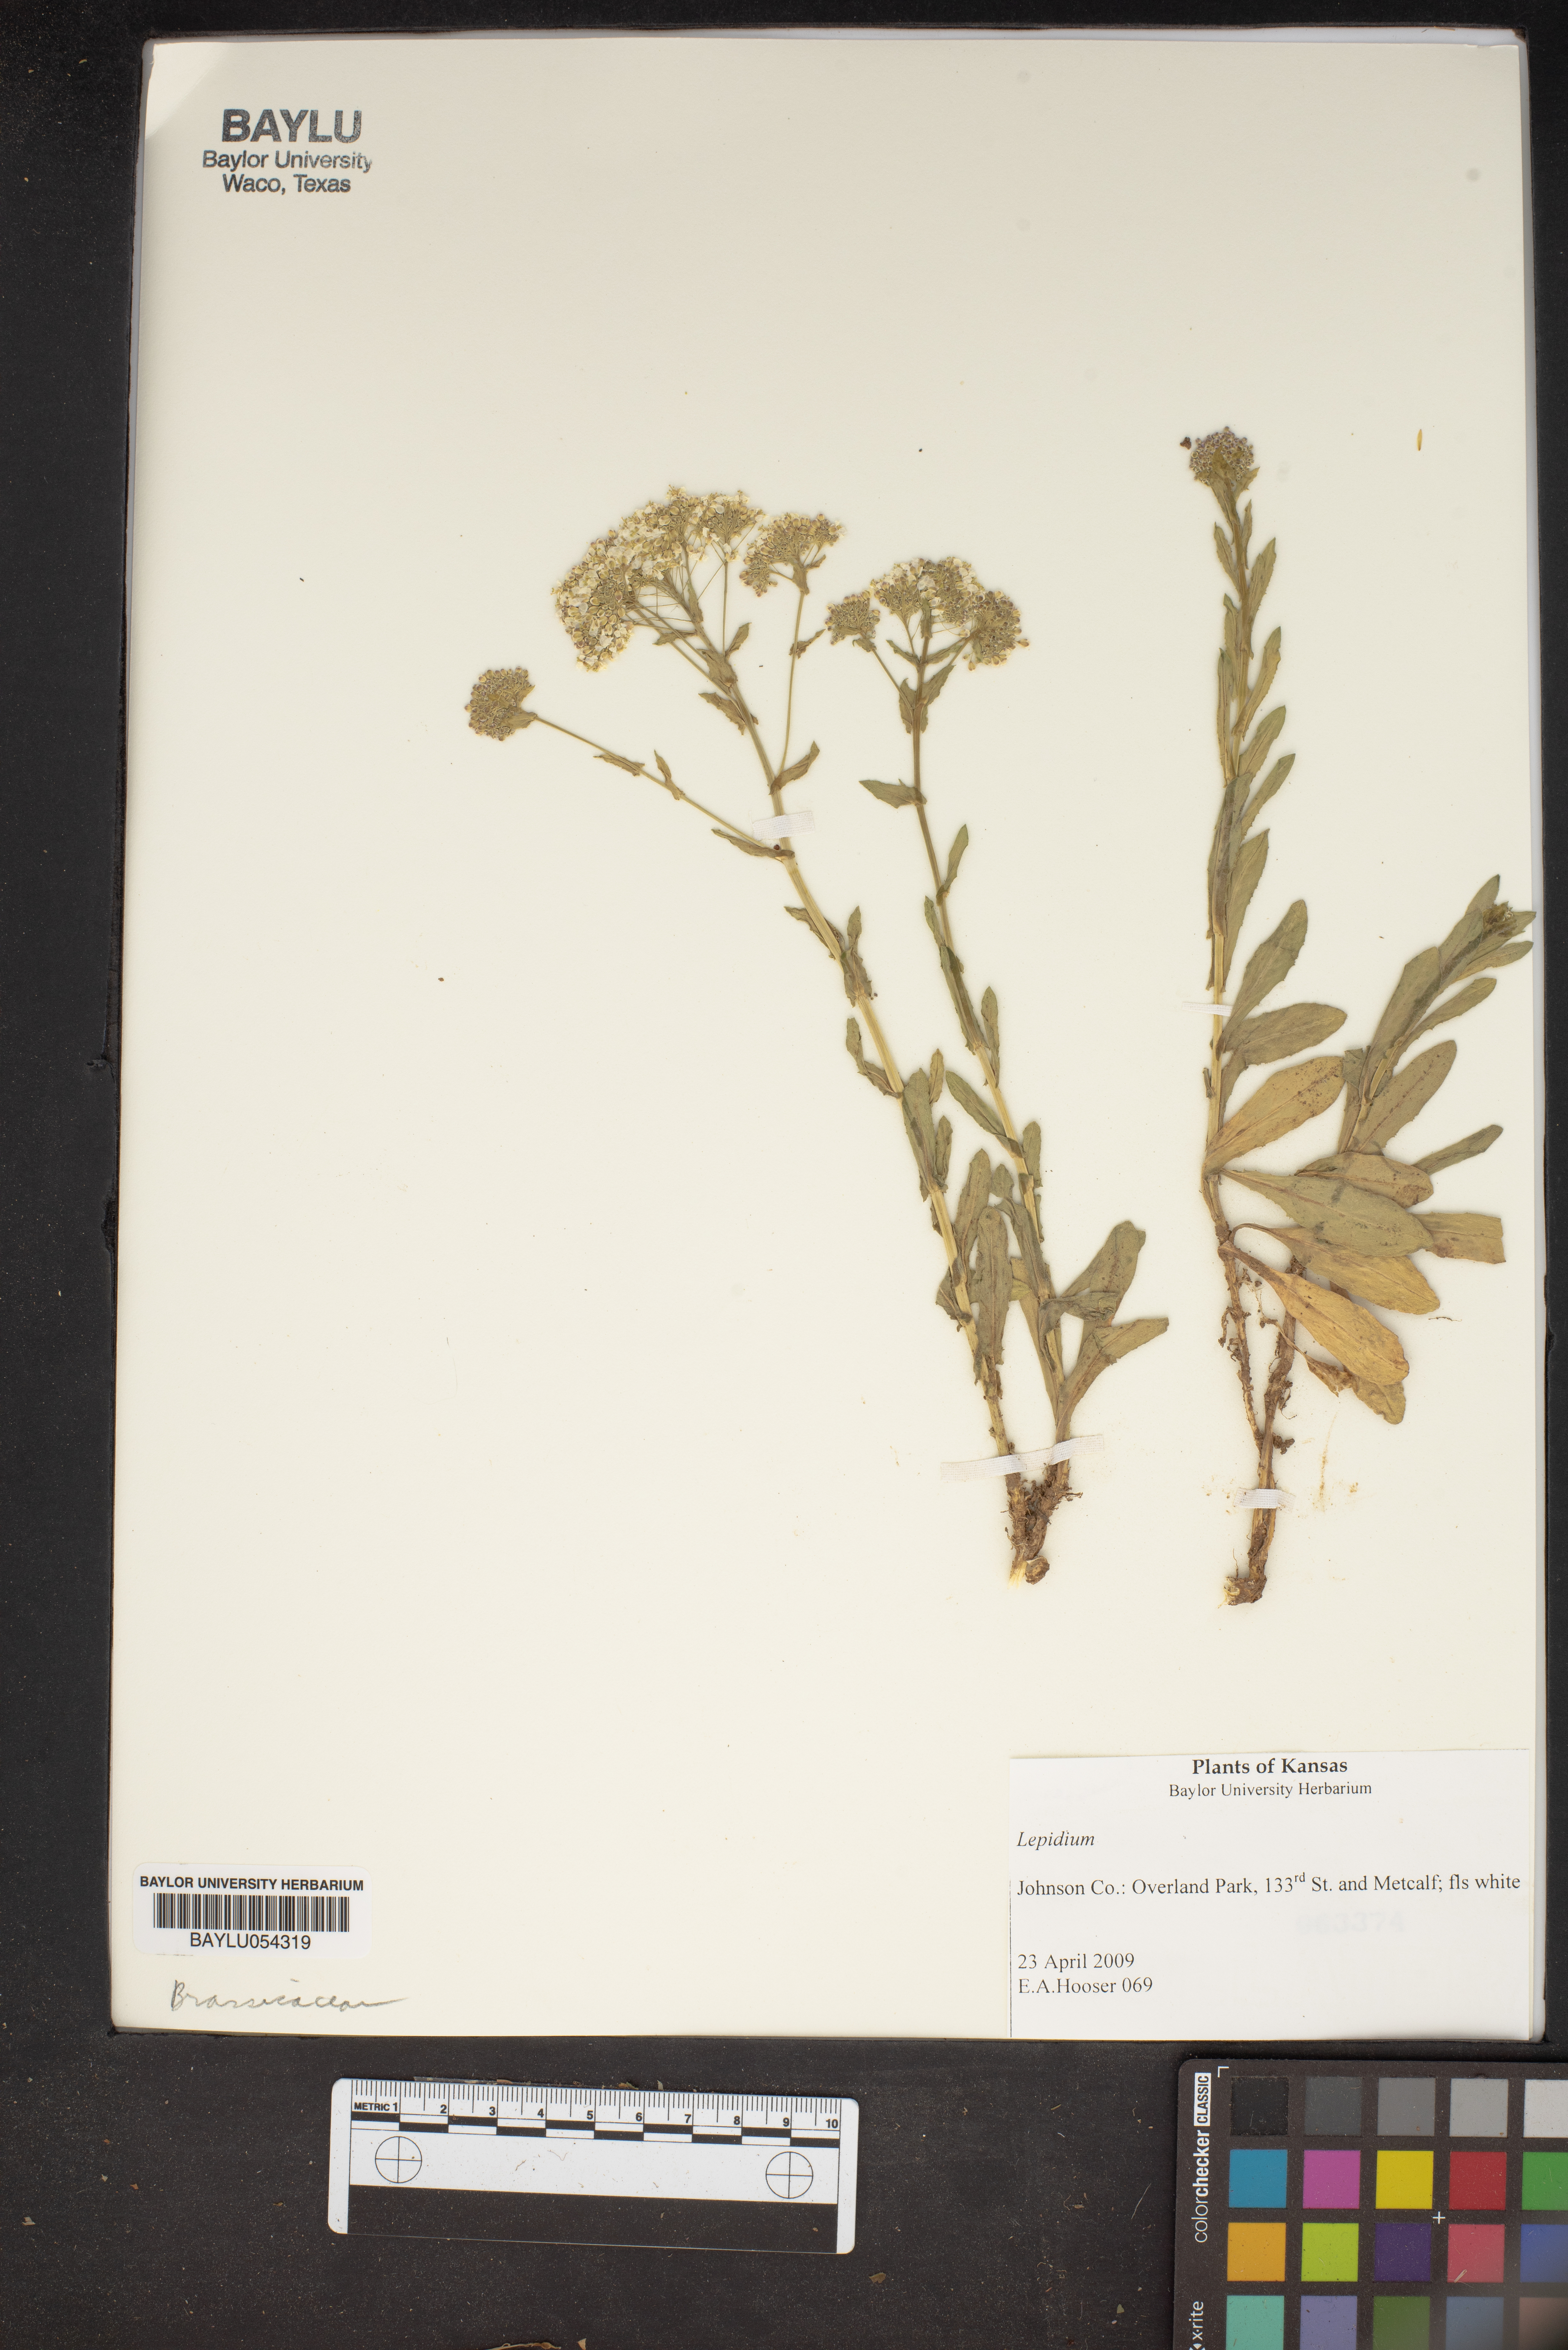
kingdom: Plantae
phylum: Tracheophyta
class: Magnoliopsida
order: Brassicales
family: Brassicaceae
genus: Lepidium
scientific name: Lepidium
